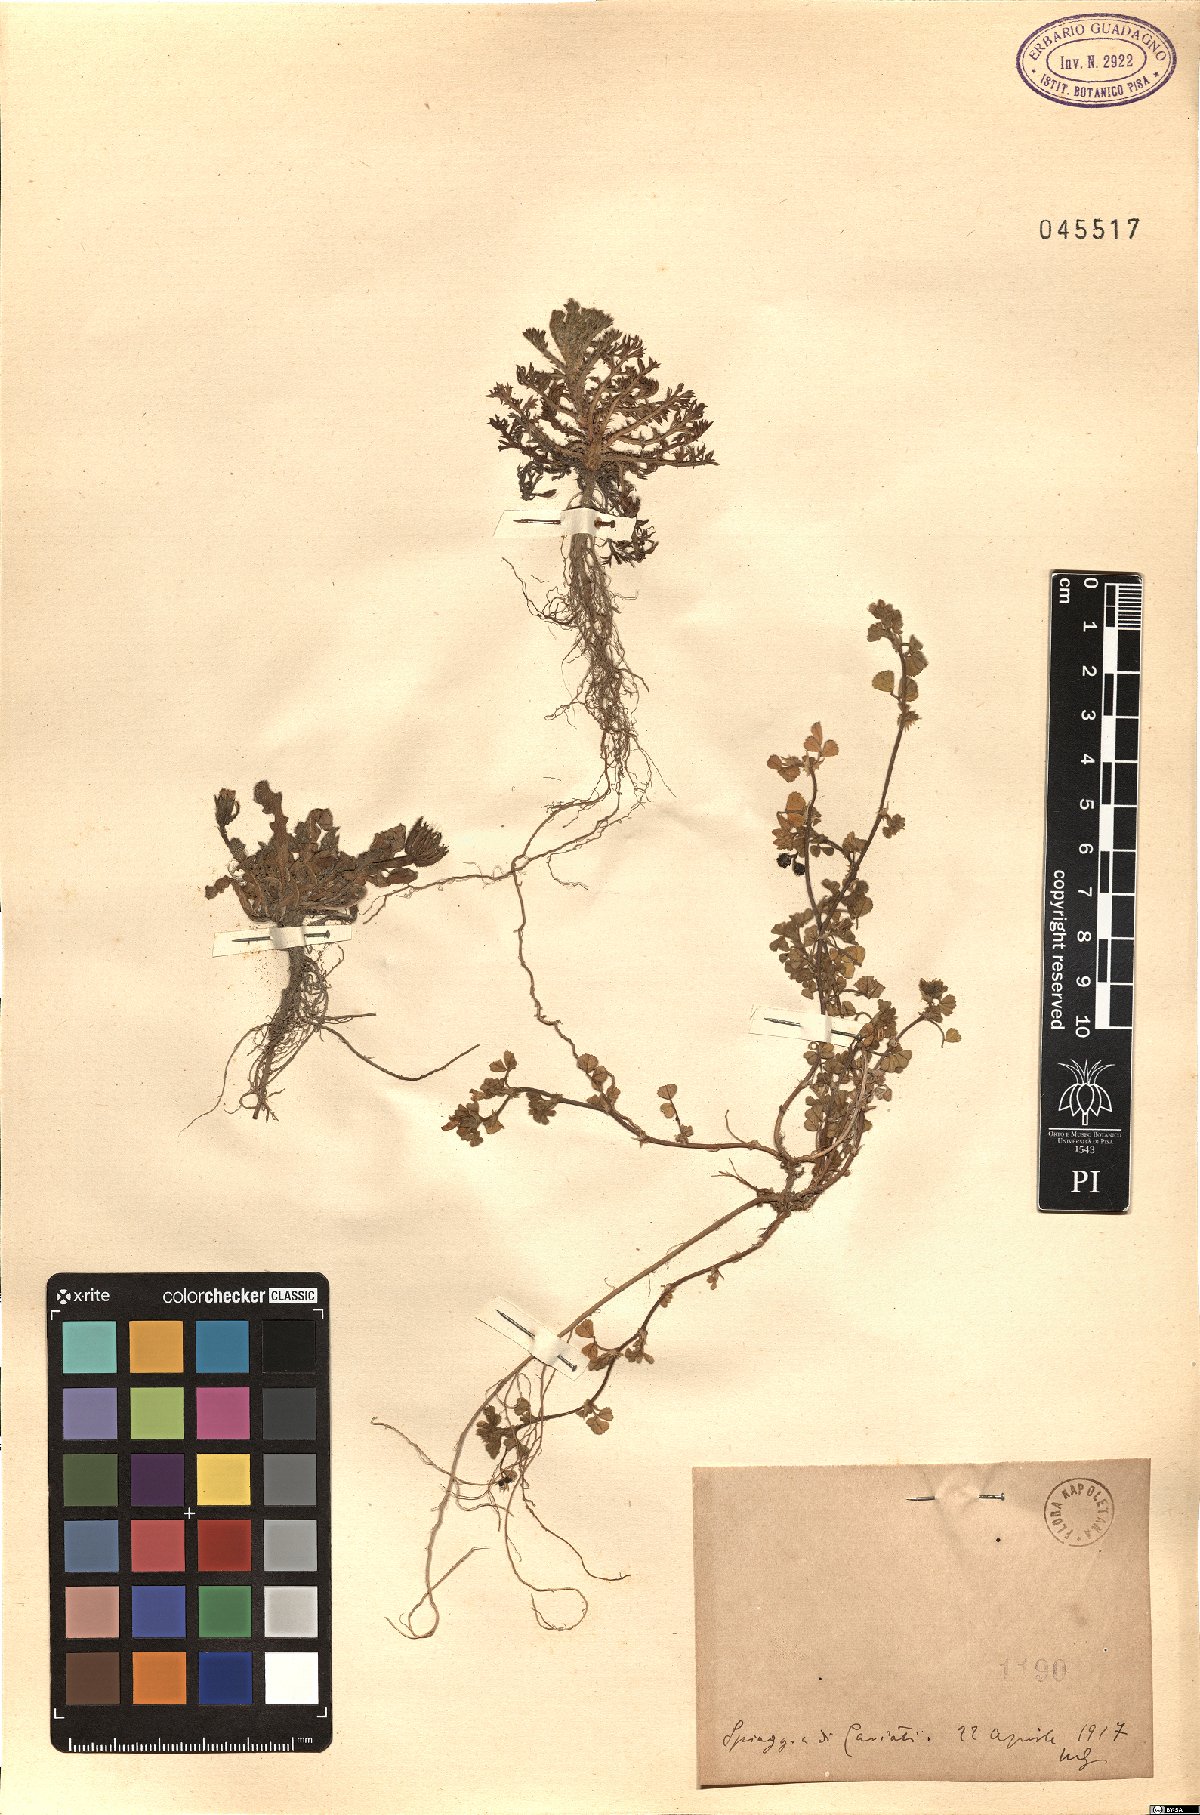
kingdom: Plantae
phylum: Tracheophyta
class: Magnoliopsida
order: Fabales
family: Fabaceae
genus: Medicago
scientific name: Medicago
